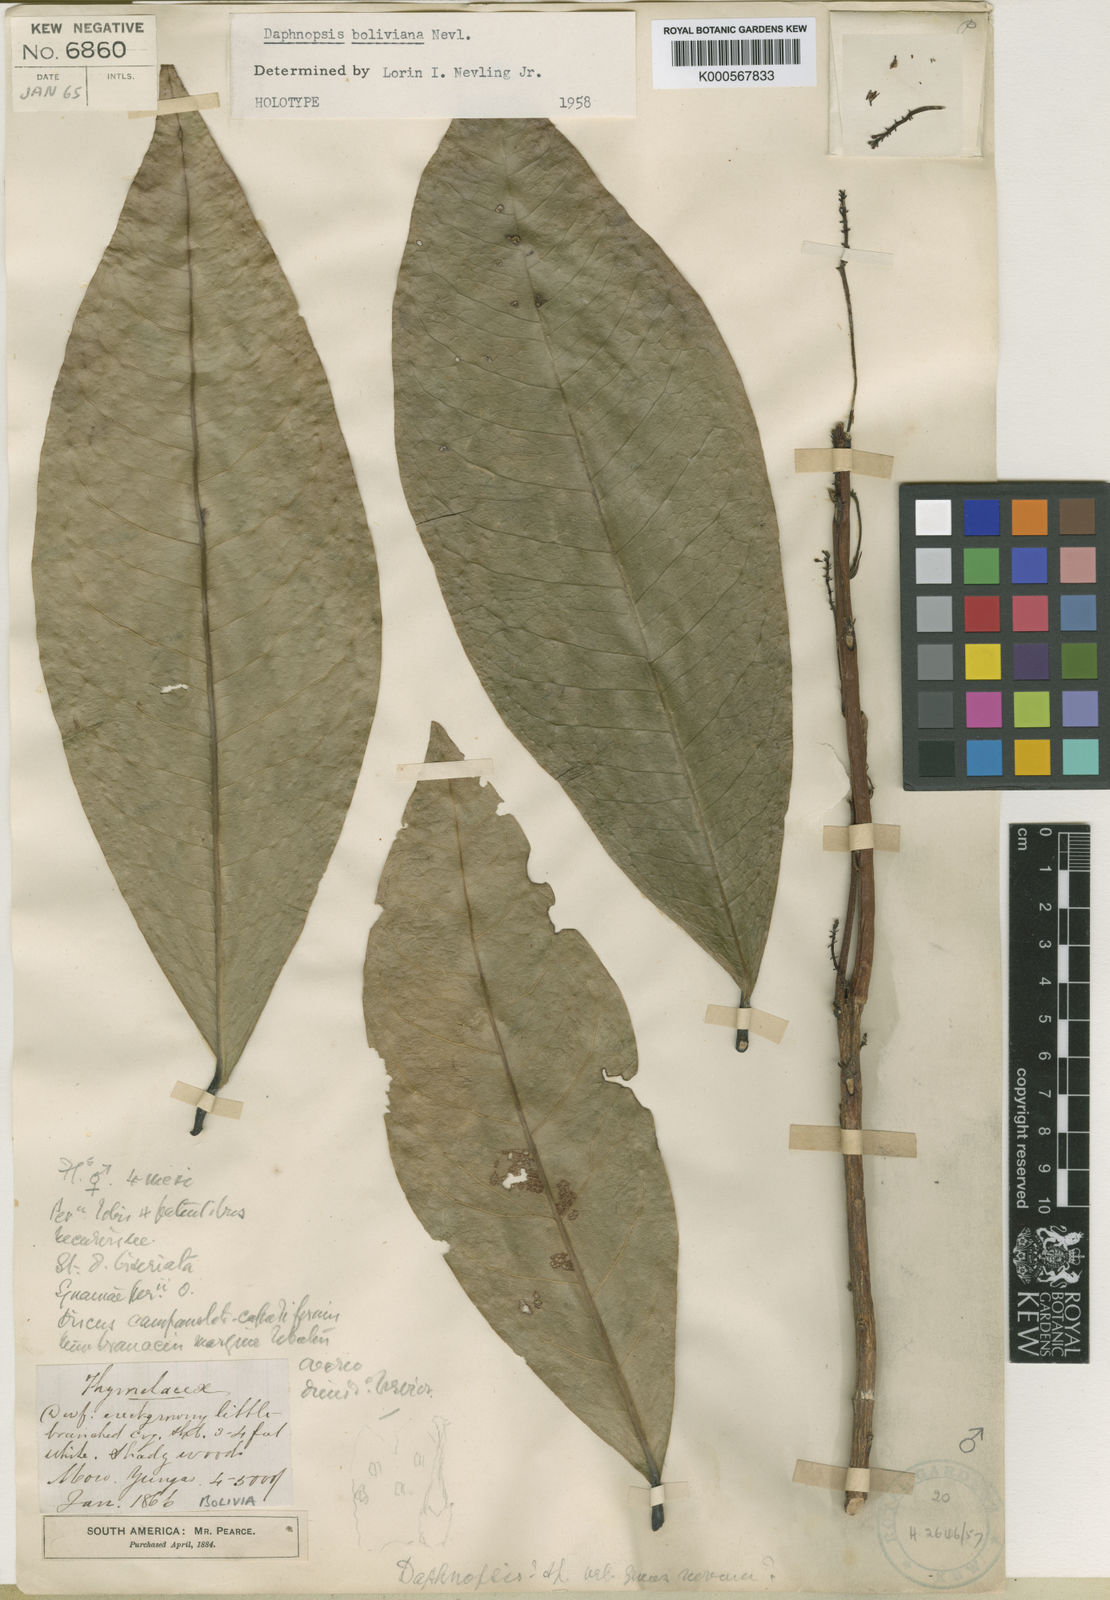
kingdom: Plantae
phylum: Tracheophyta
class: Magnoliopsida
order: Malvales
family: Thymelaeaceae
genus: Daphnopsis
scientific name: Daphnopsis boliviana
